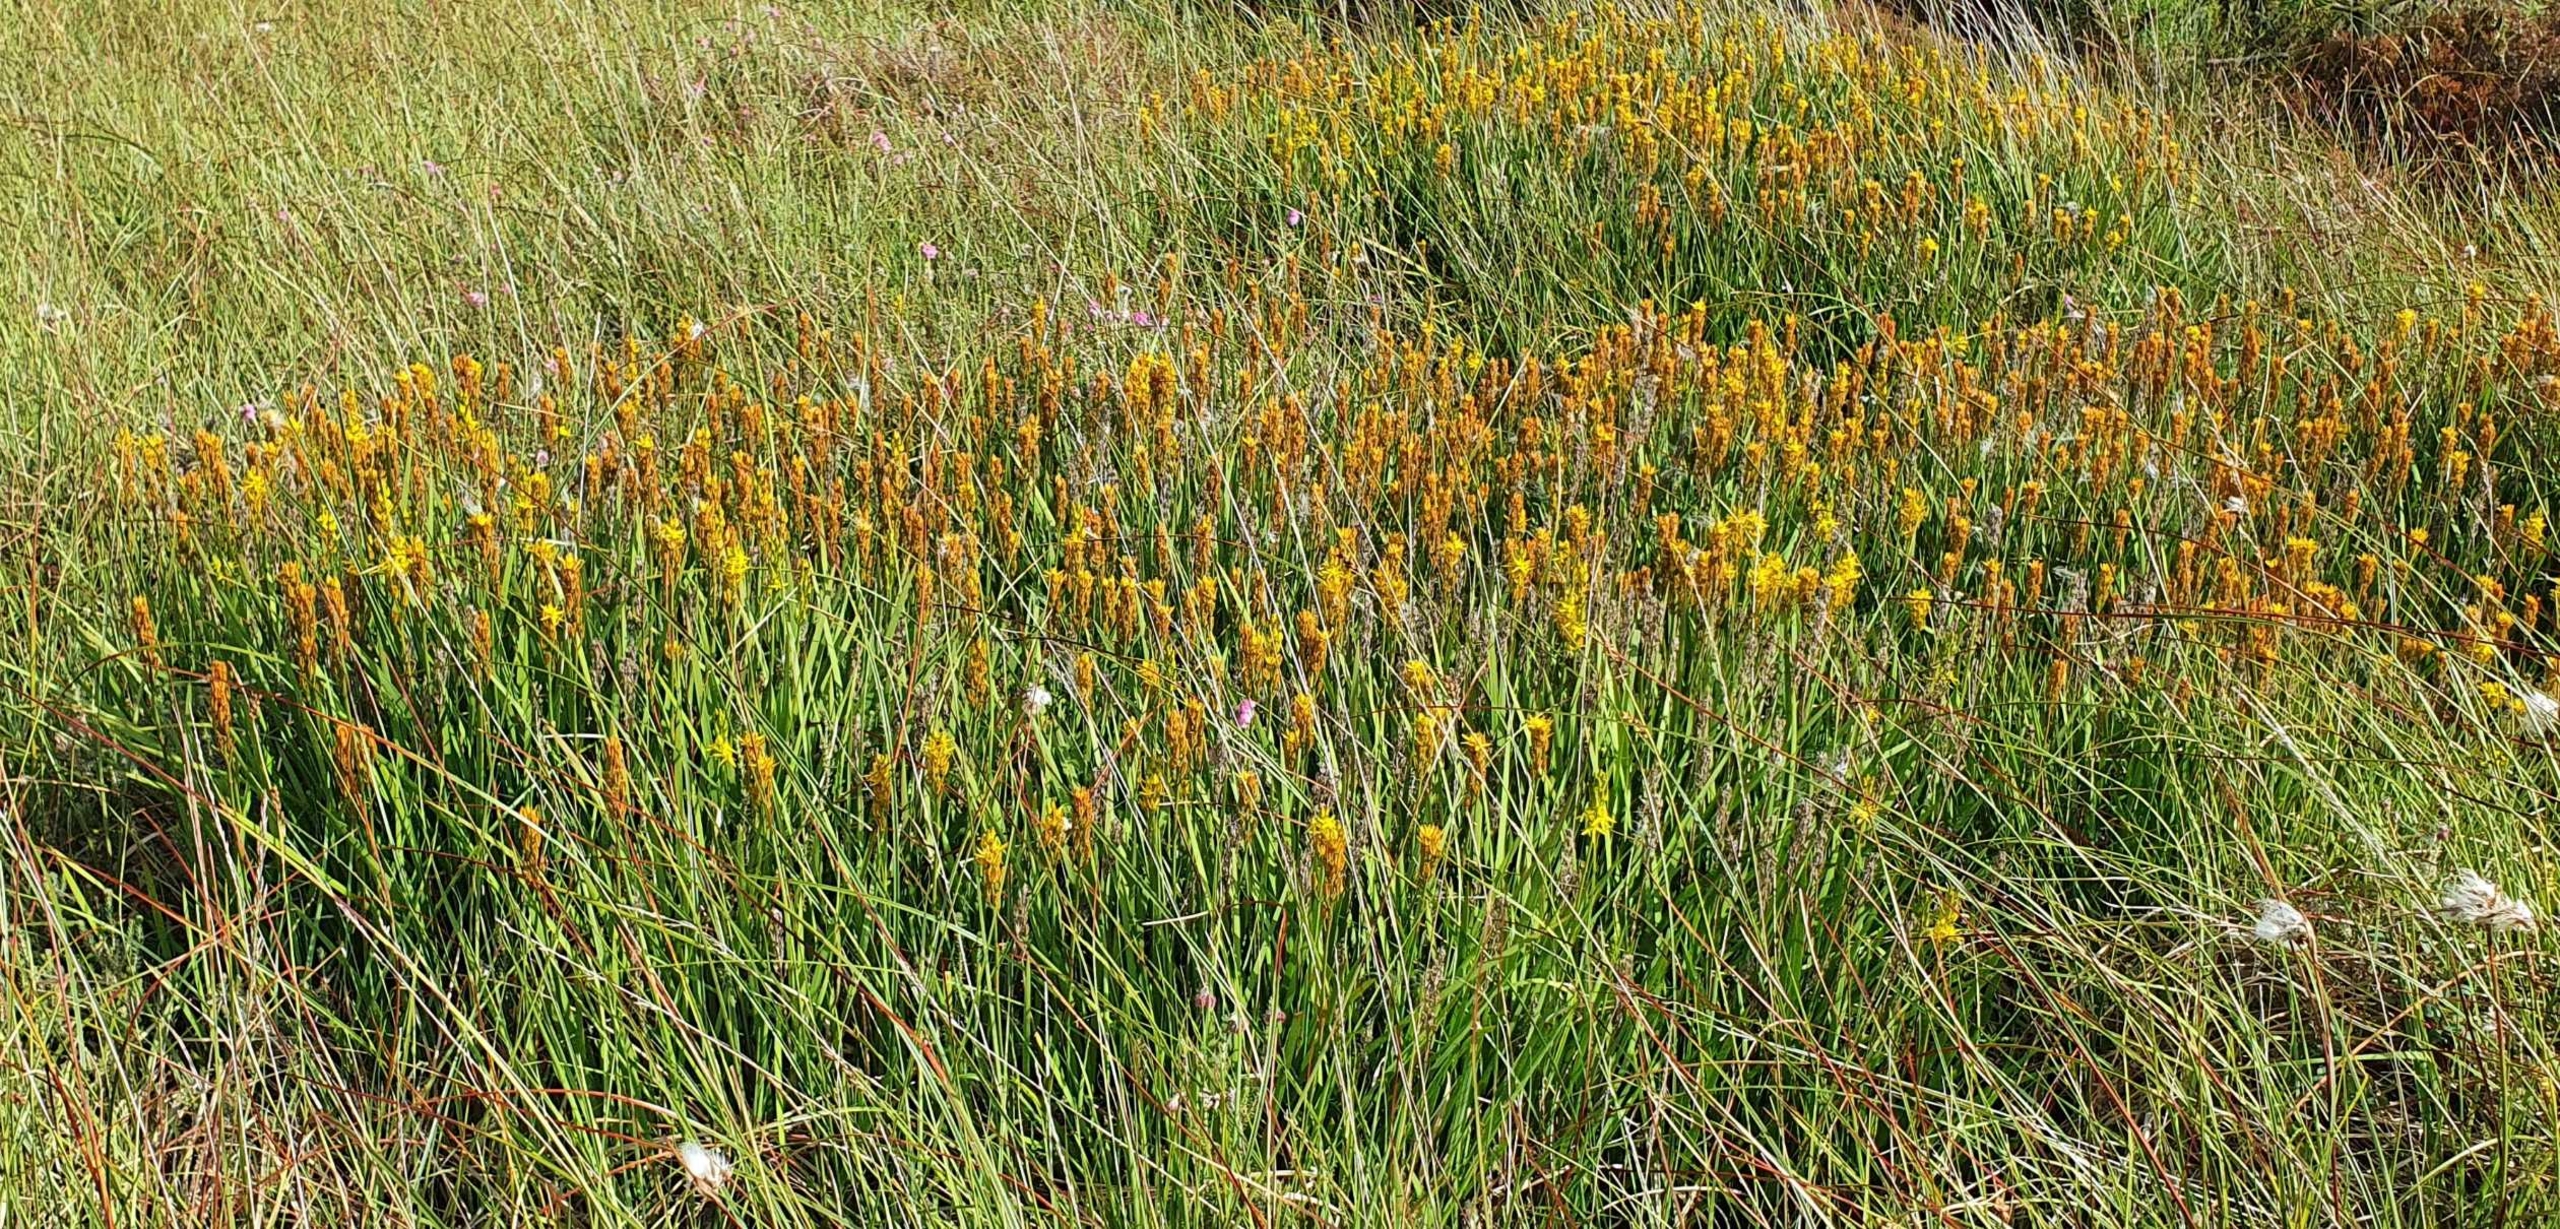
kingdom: Plantae
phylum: Tracheophyta
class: Liliopsida
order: Dioscoreales
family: Nartheciaceae
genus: Narthecium
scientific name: Narthecium ossifragum
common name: Benbræk
